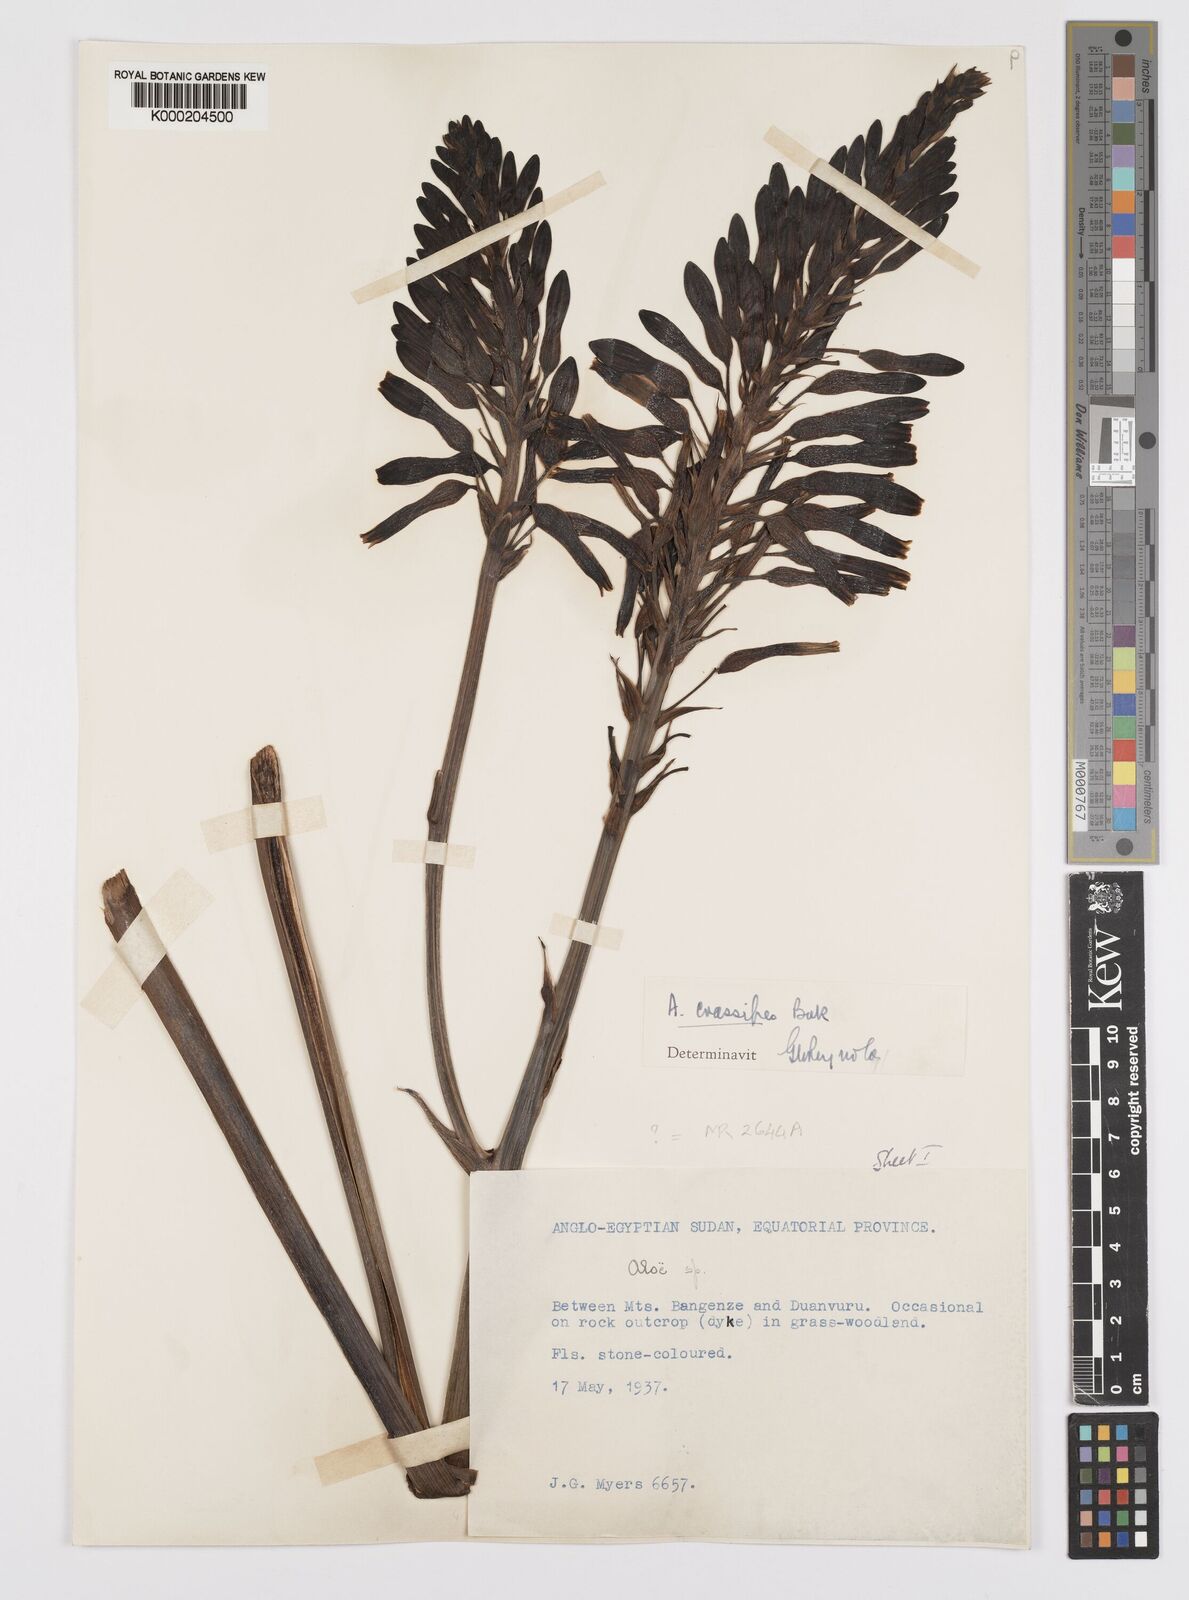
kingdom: Plantae
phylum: Tracheophyta
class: Liliopsida
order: Asparagales
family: Asphodelaceae
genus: Aloe
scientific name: Aloe crassipes
